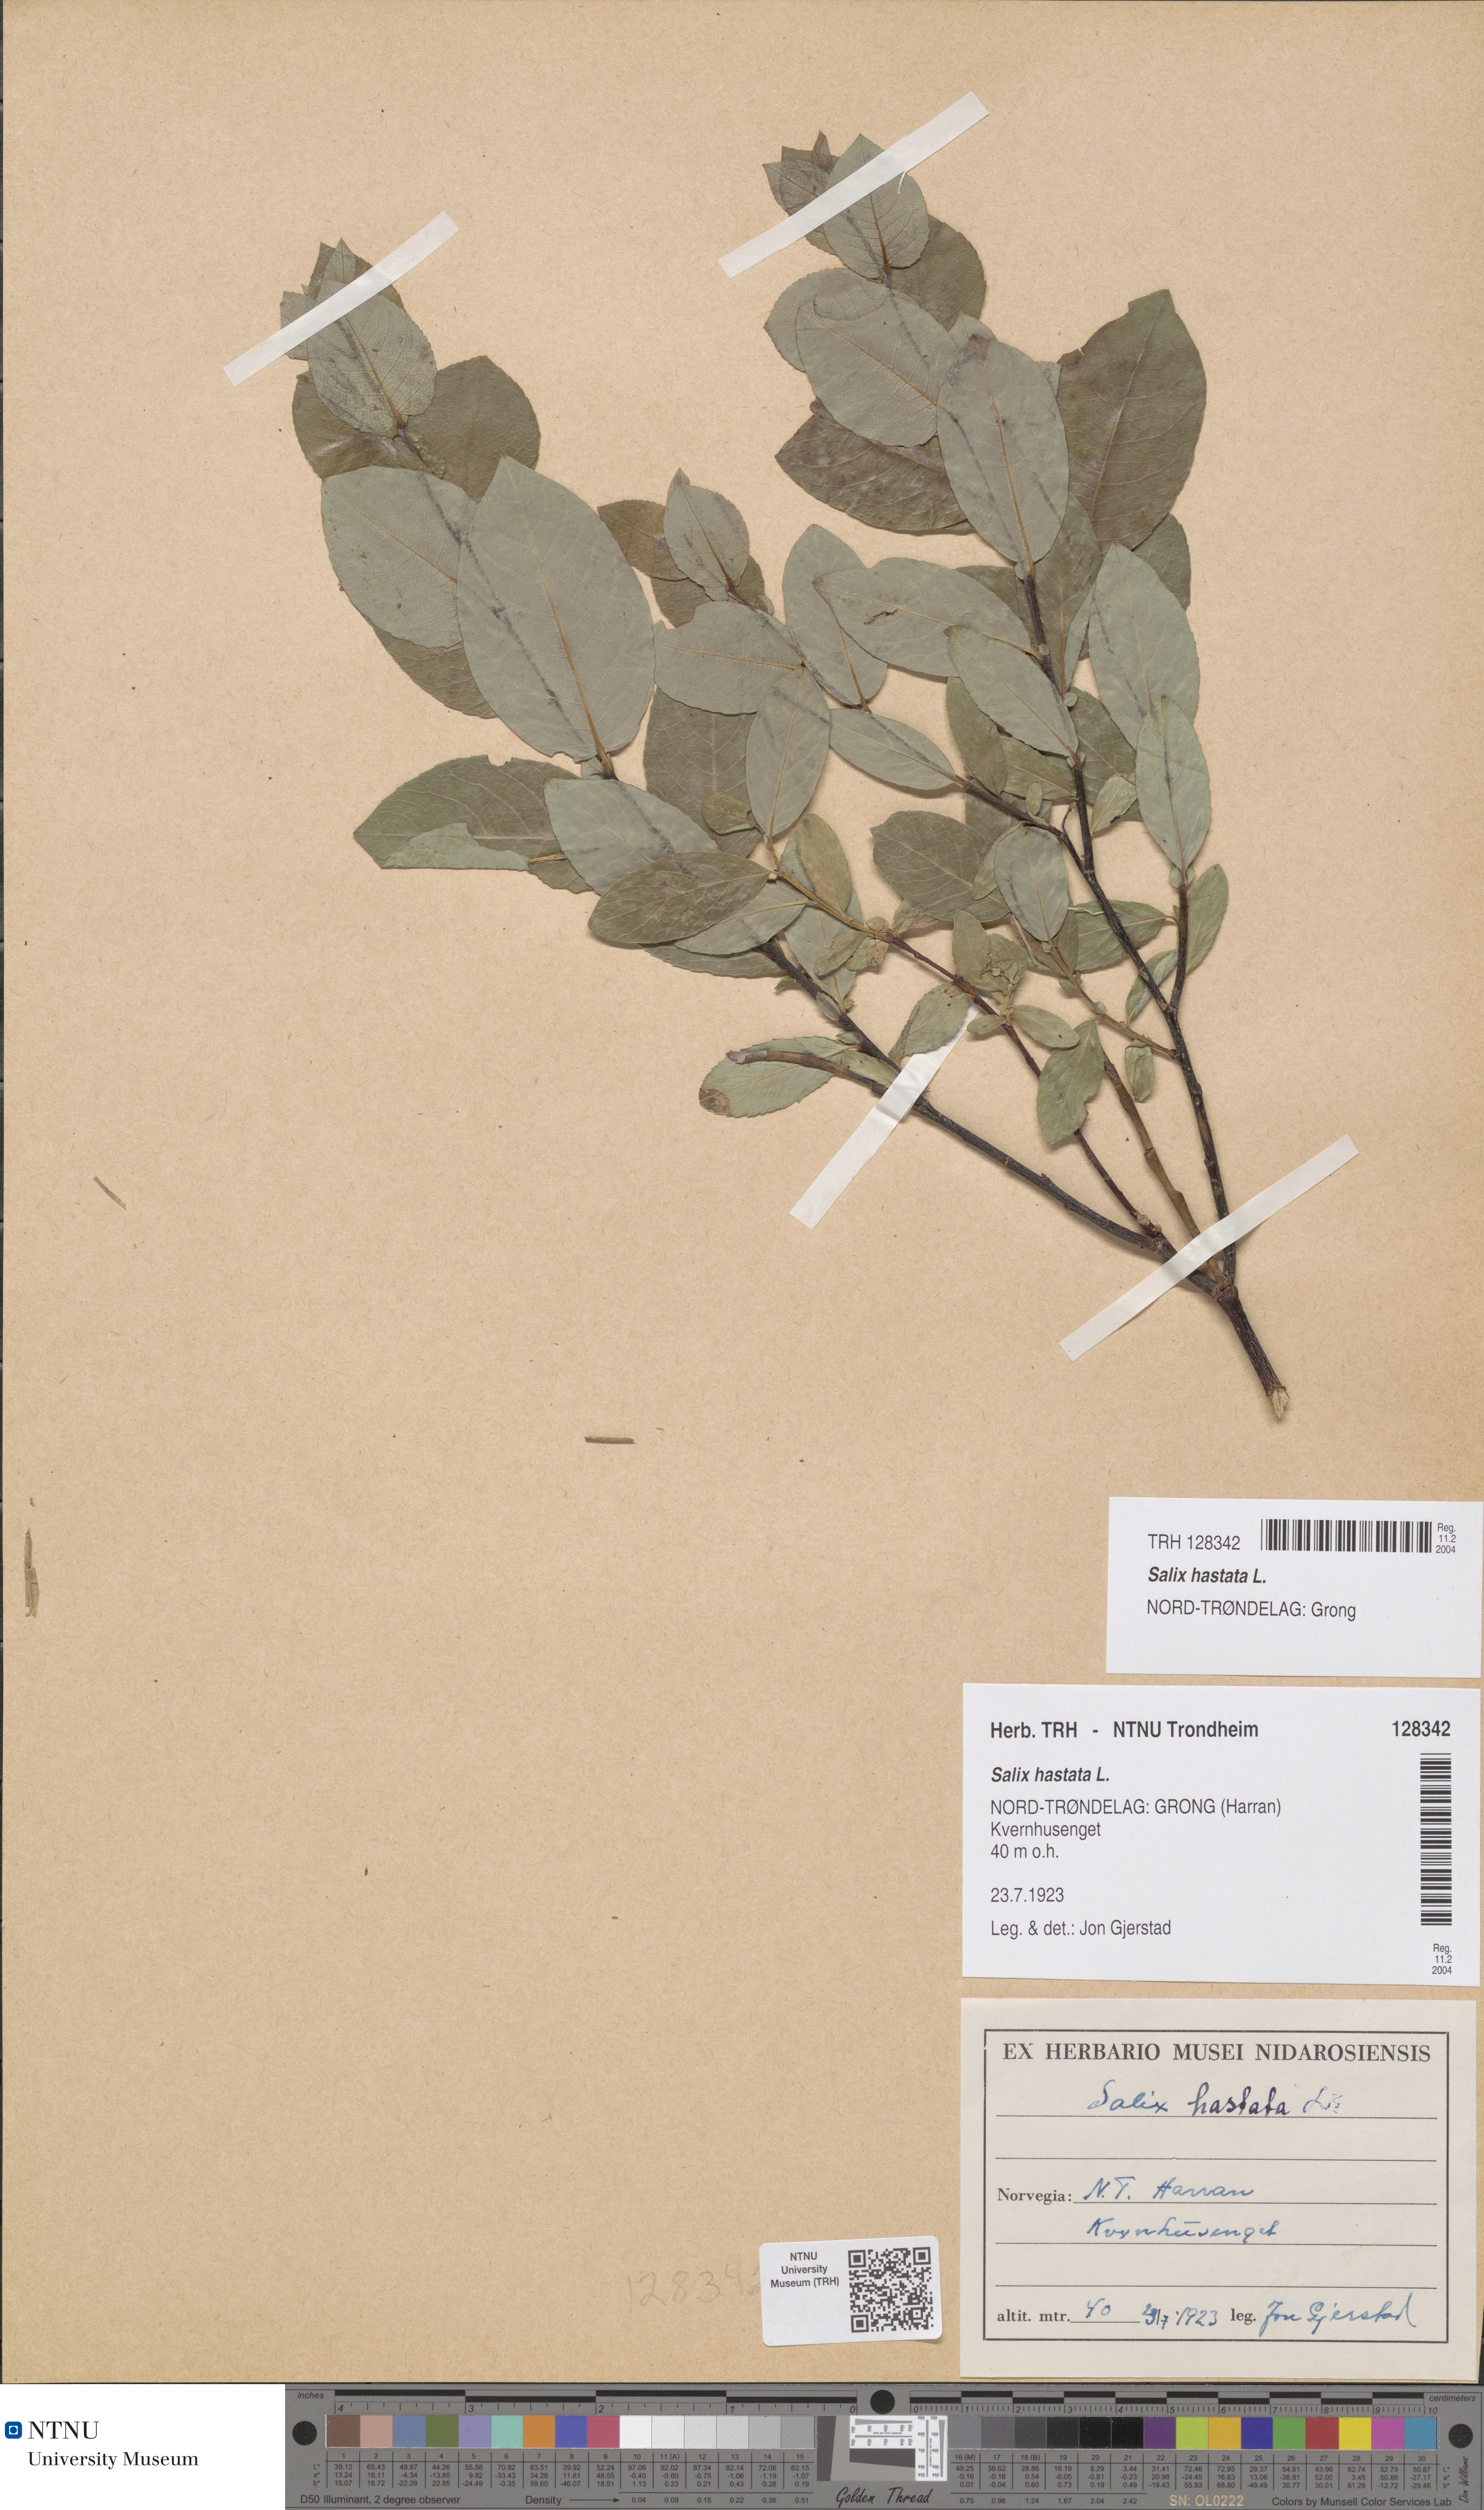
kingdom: Plantae
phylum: Tracheophyta
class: Magnoliopsida
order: Malpighiales
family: Salicaceae
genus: Salix
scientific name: Salix hastata
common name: Halberd willow
